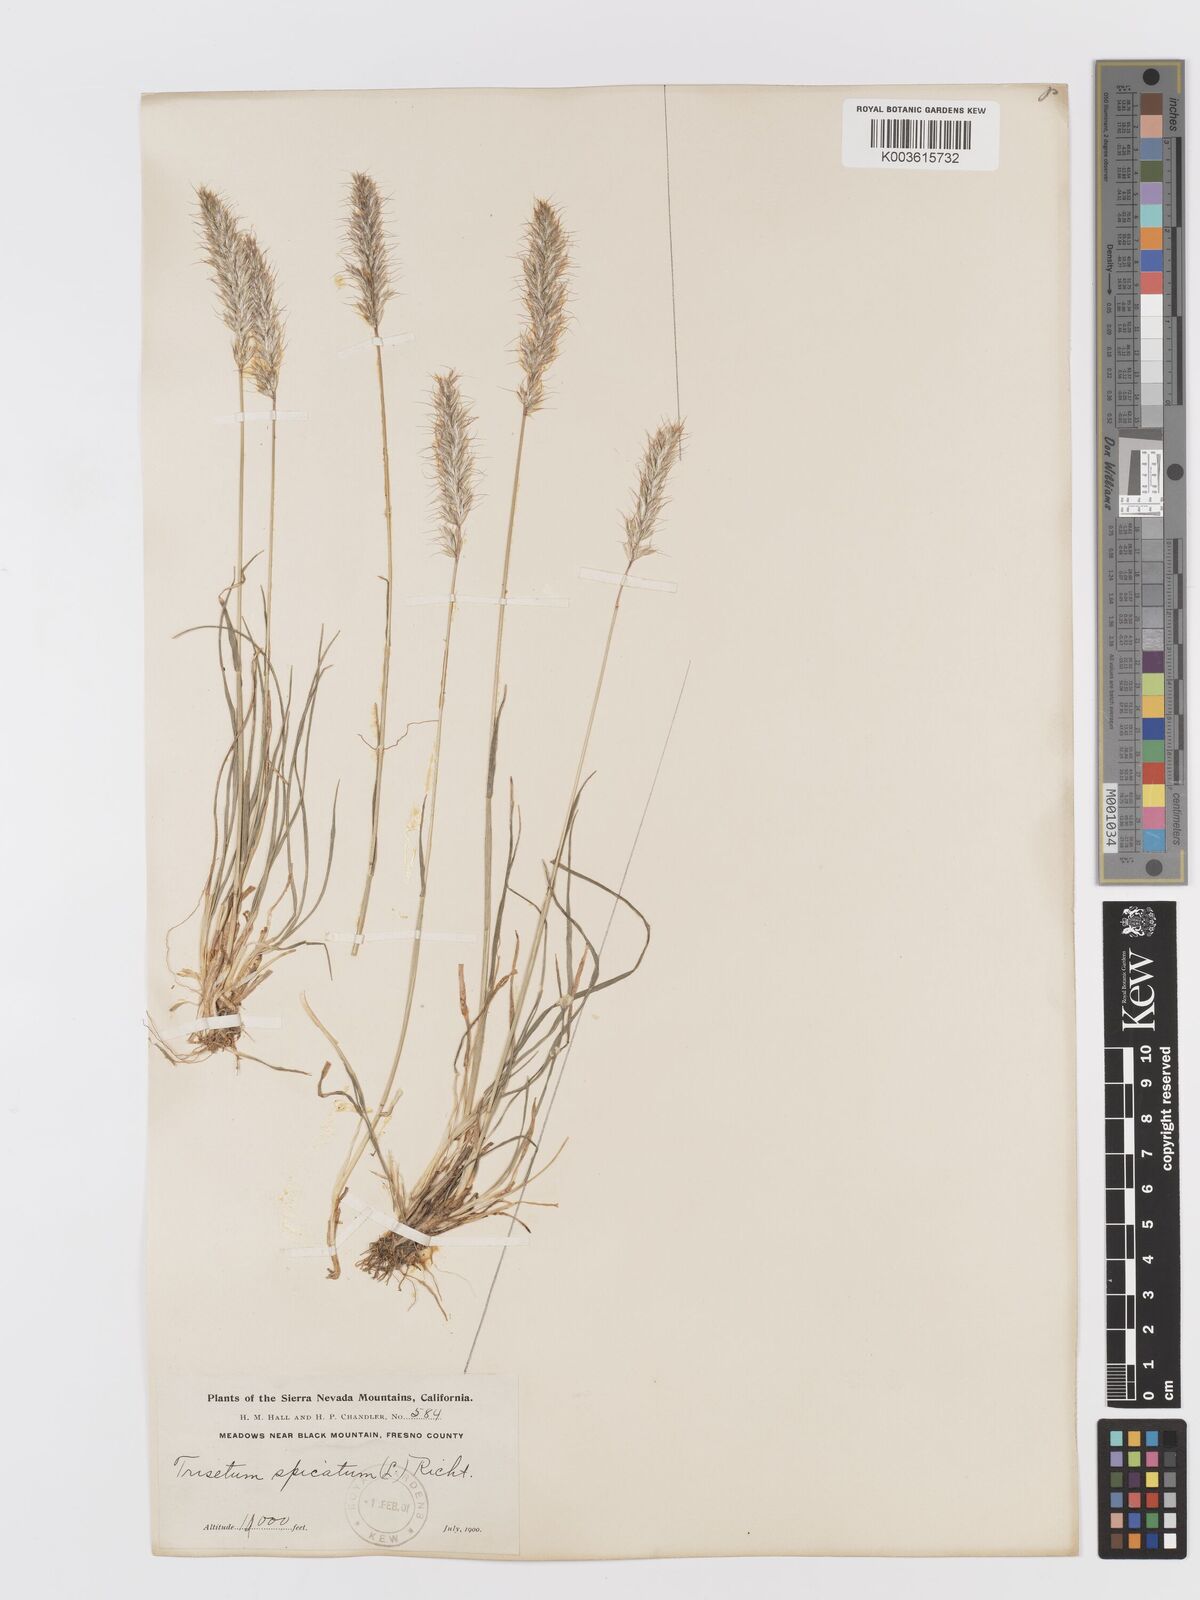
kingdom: Plantae
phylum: Tracheophyta
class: Liliopsida
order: Poales
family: Poaceae
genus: Koeleria
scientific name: Koeleria spicata
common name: Mountain trisetum
